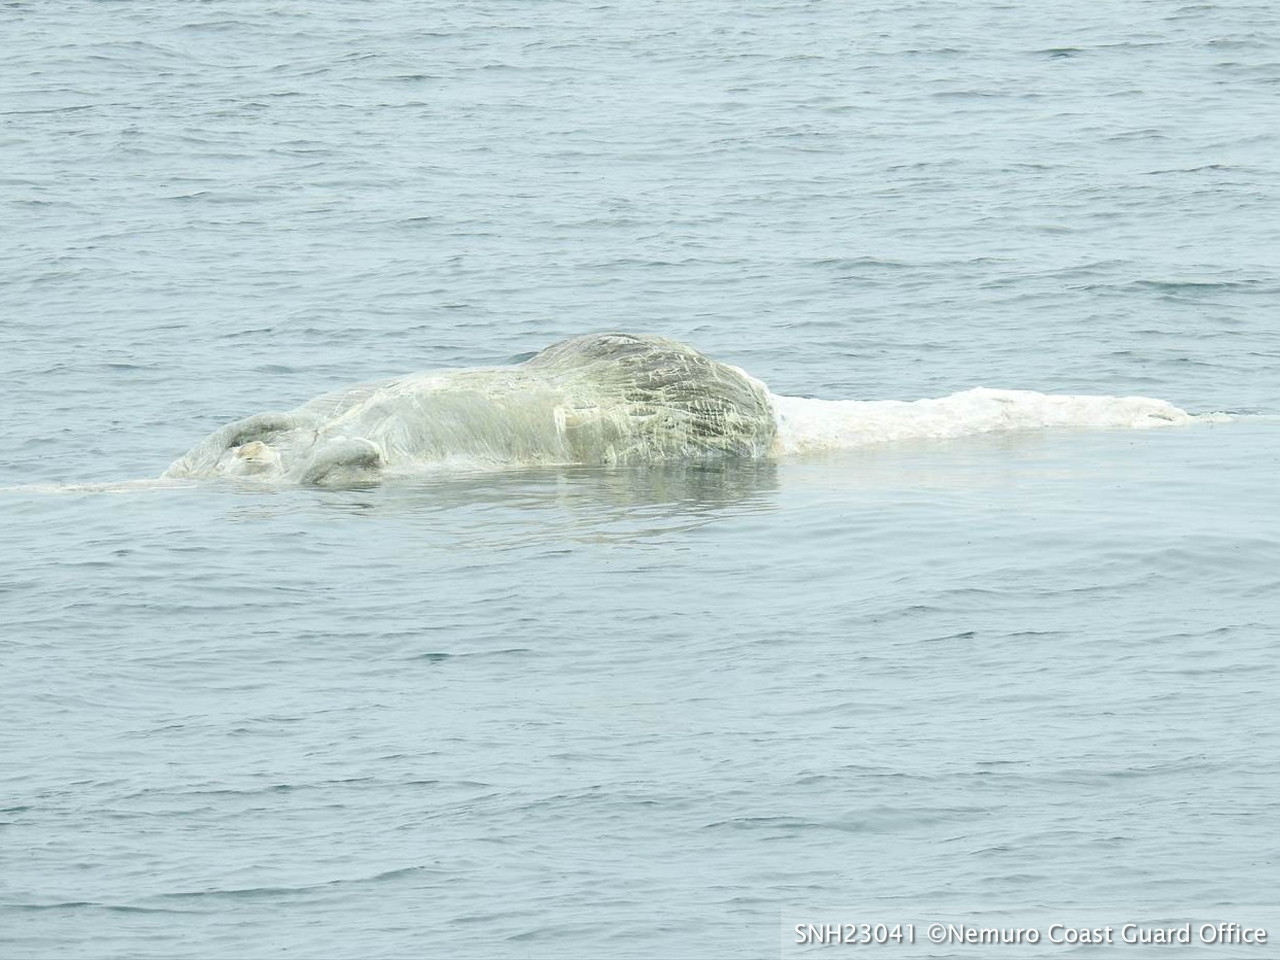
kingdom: Animalia
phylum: Chordata
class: Mammalia
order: Cetacea
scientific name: Cetacea
